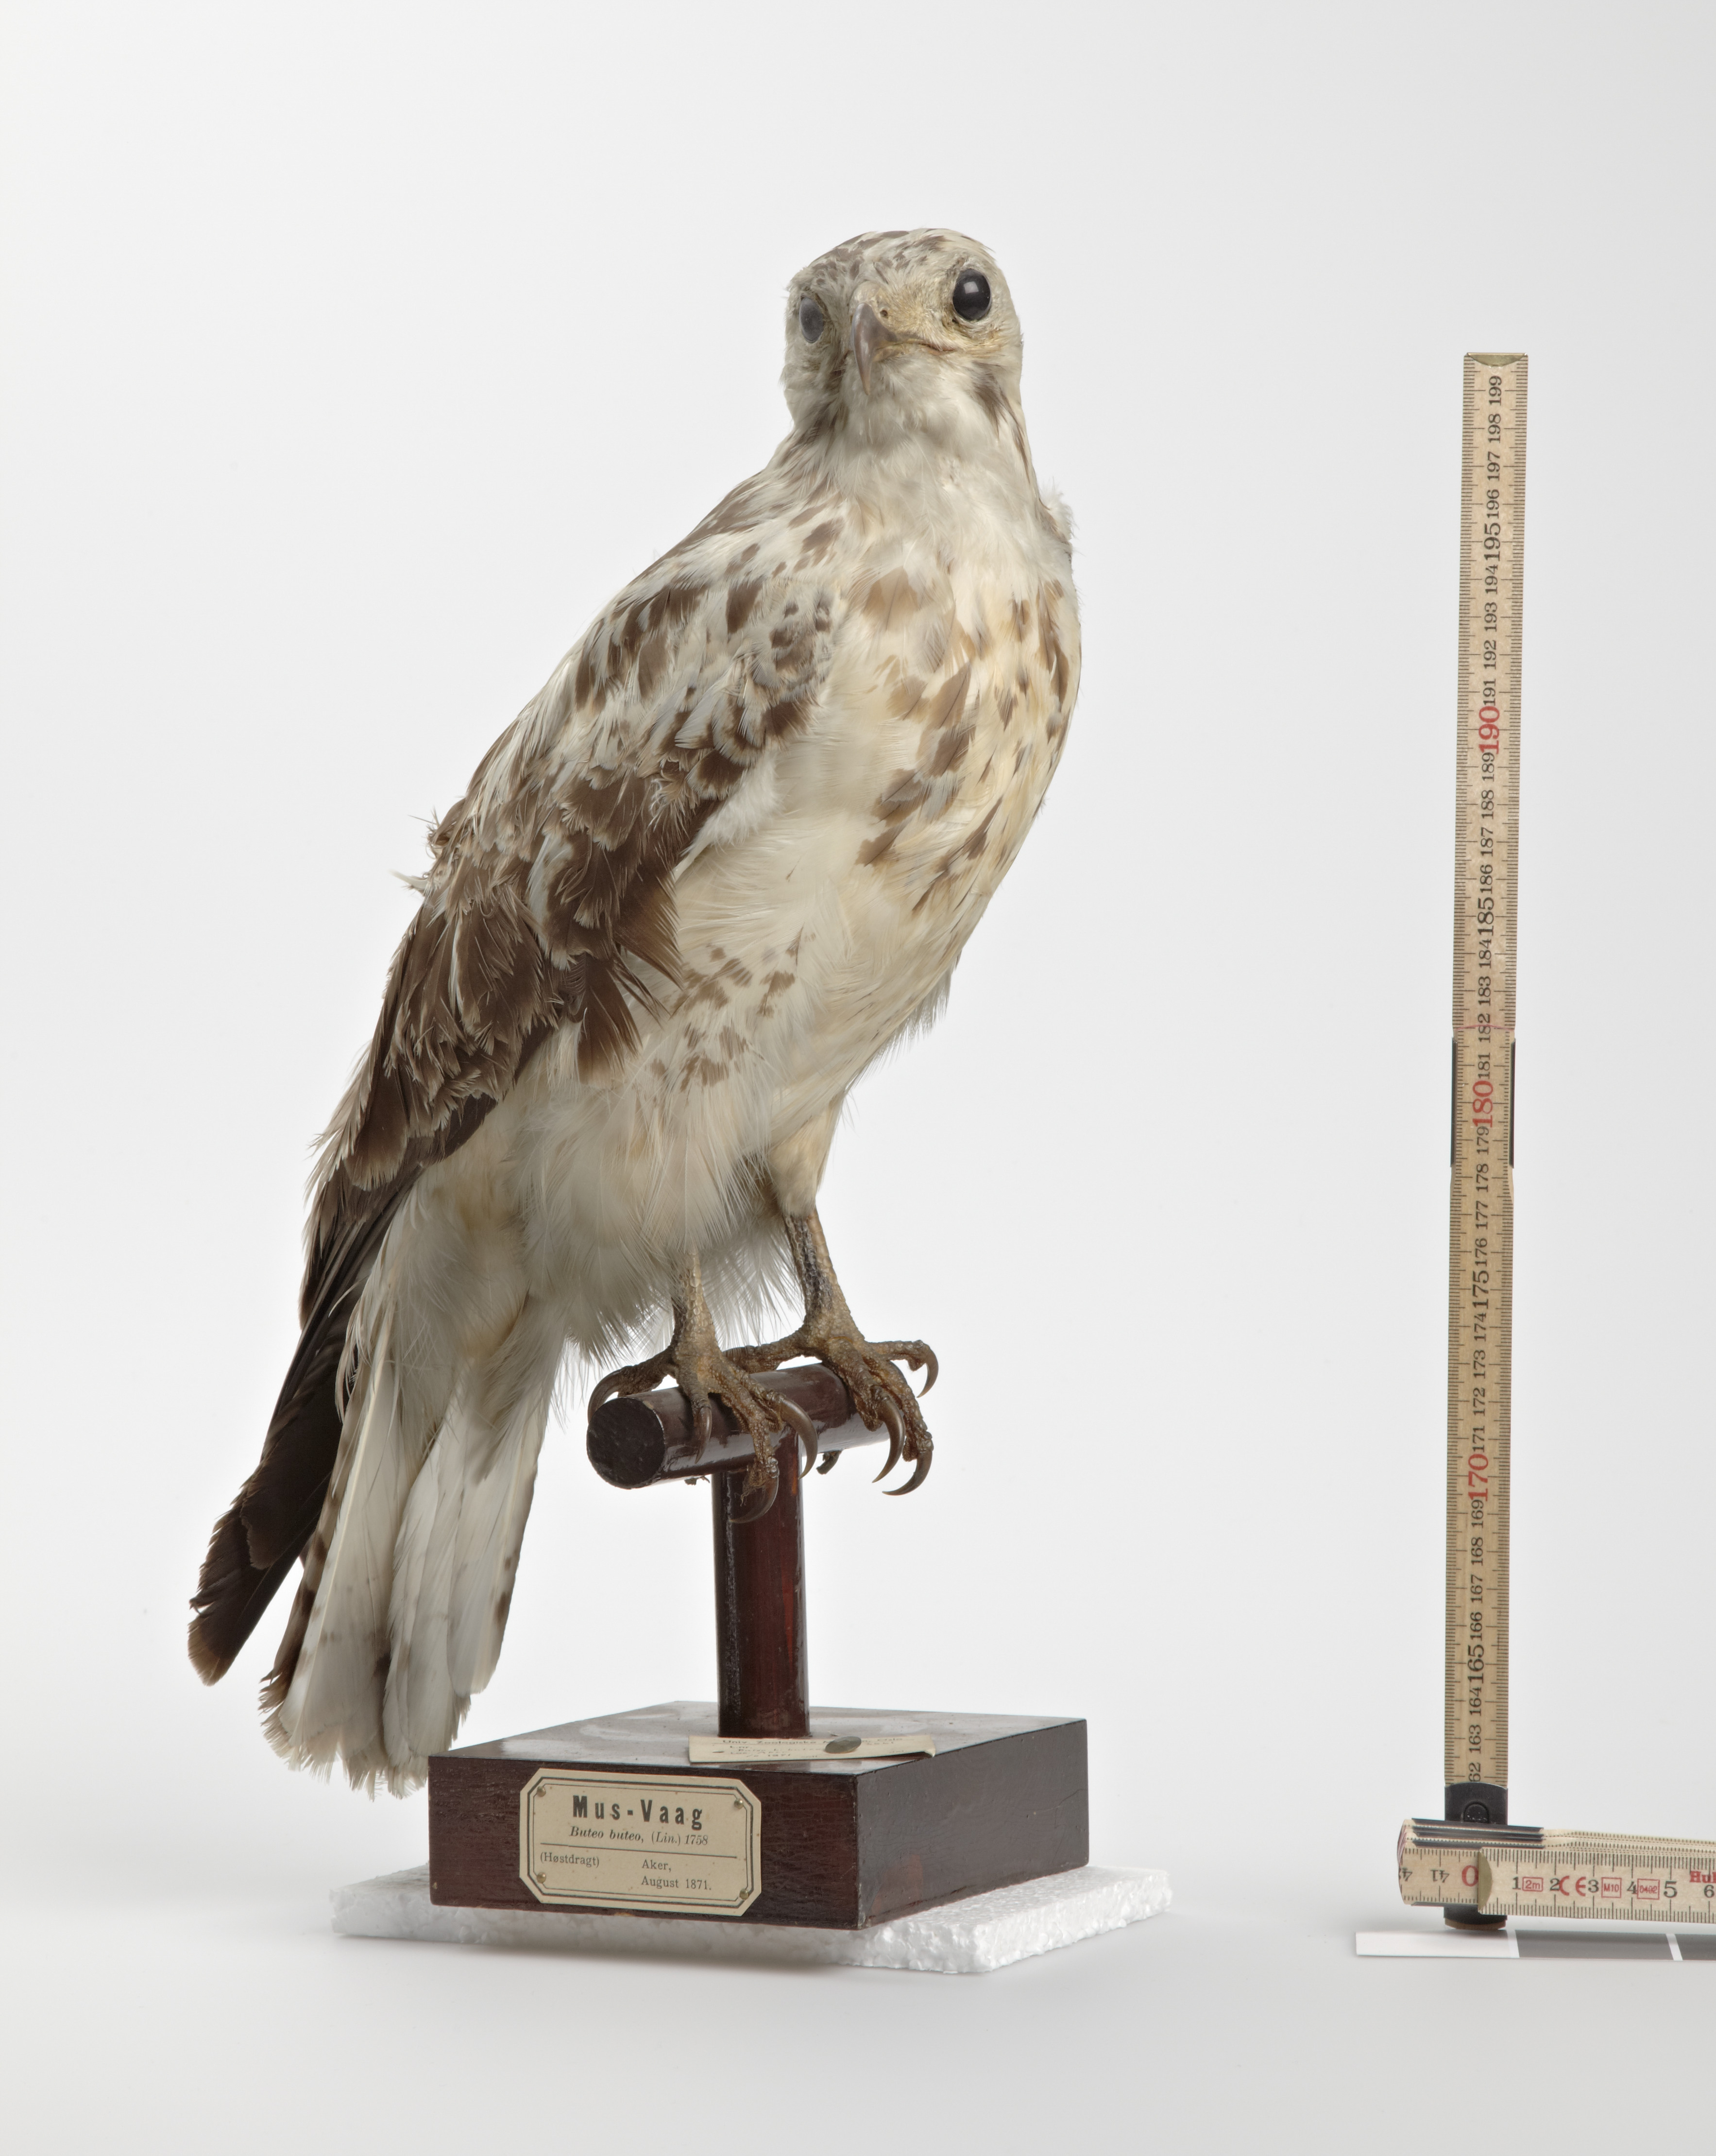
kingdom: Animalia
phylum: Chordata
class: Aves
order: Accipitriformes
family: Accipitridae
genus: Buteo
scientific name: Buteo buteo
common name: Common buzzard
